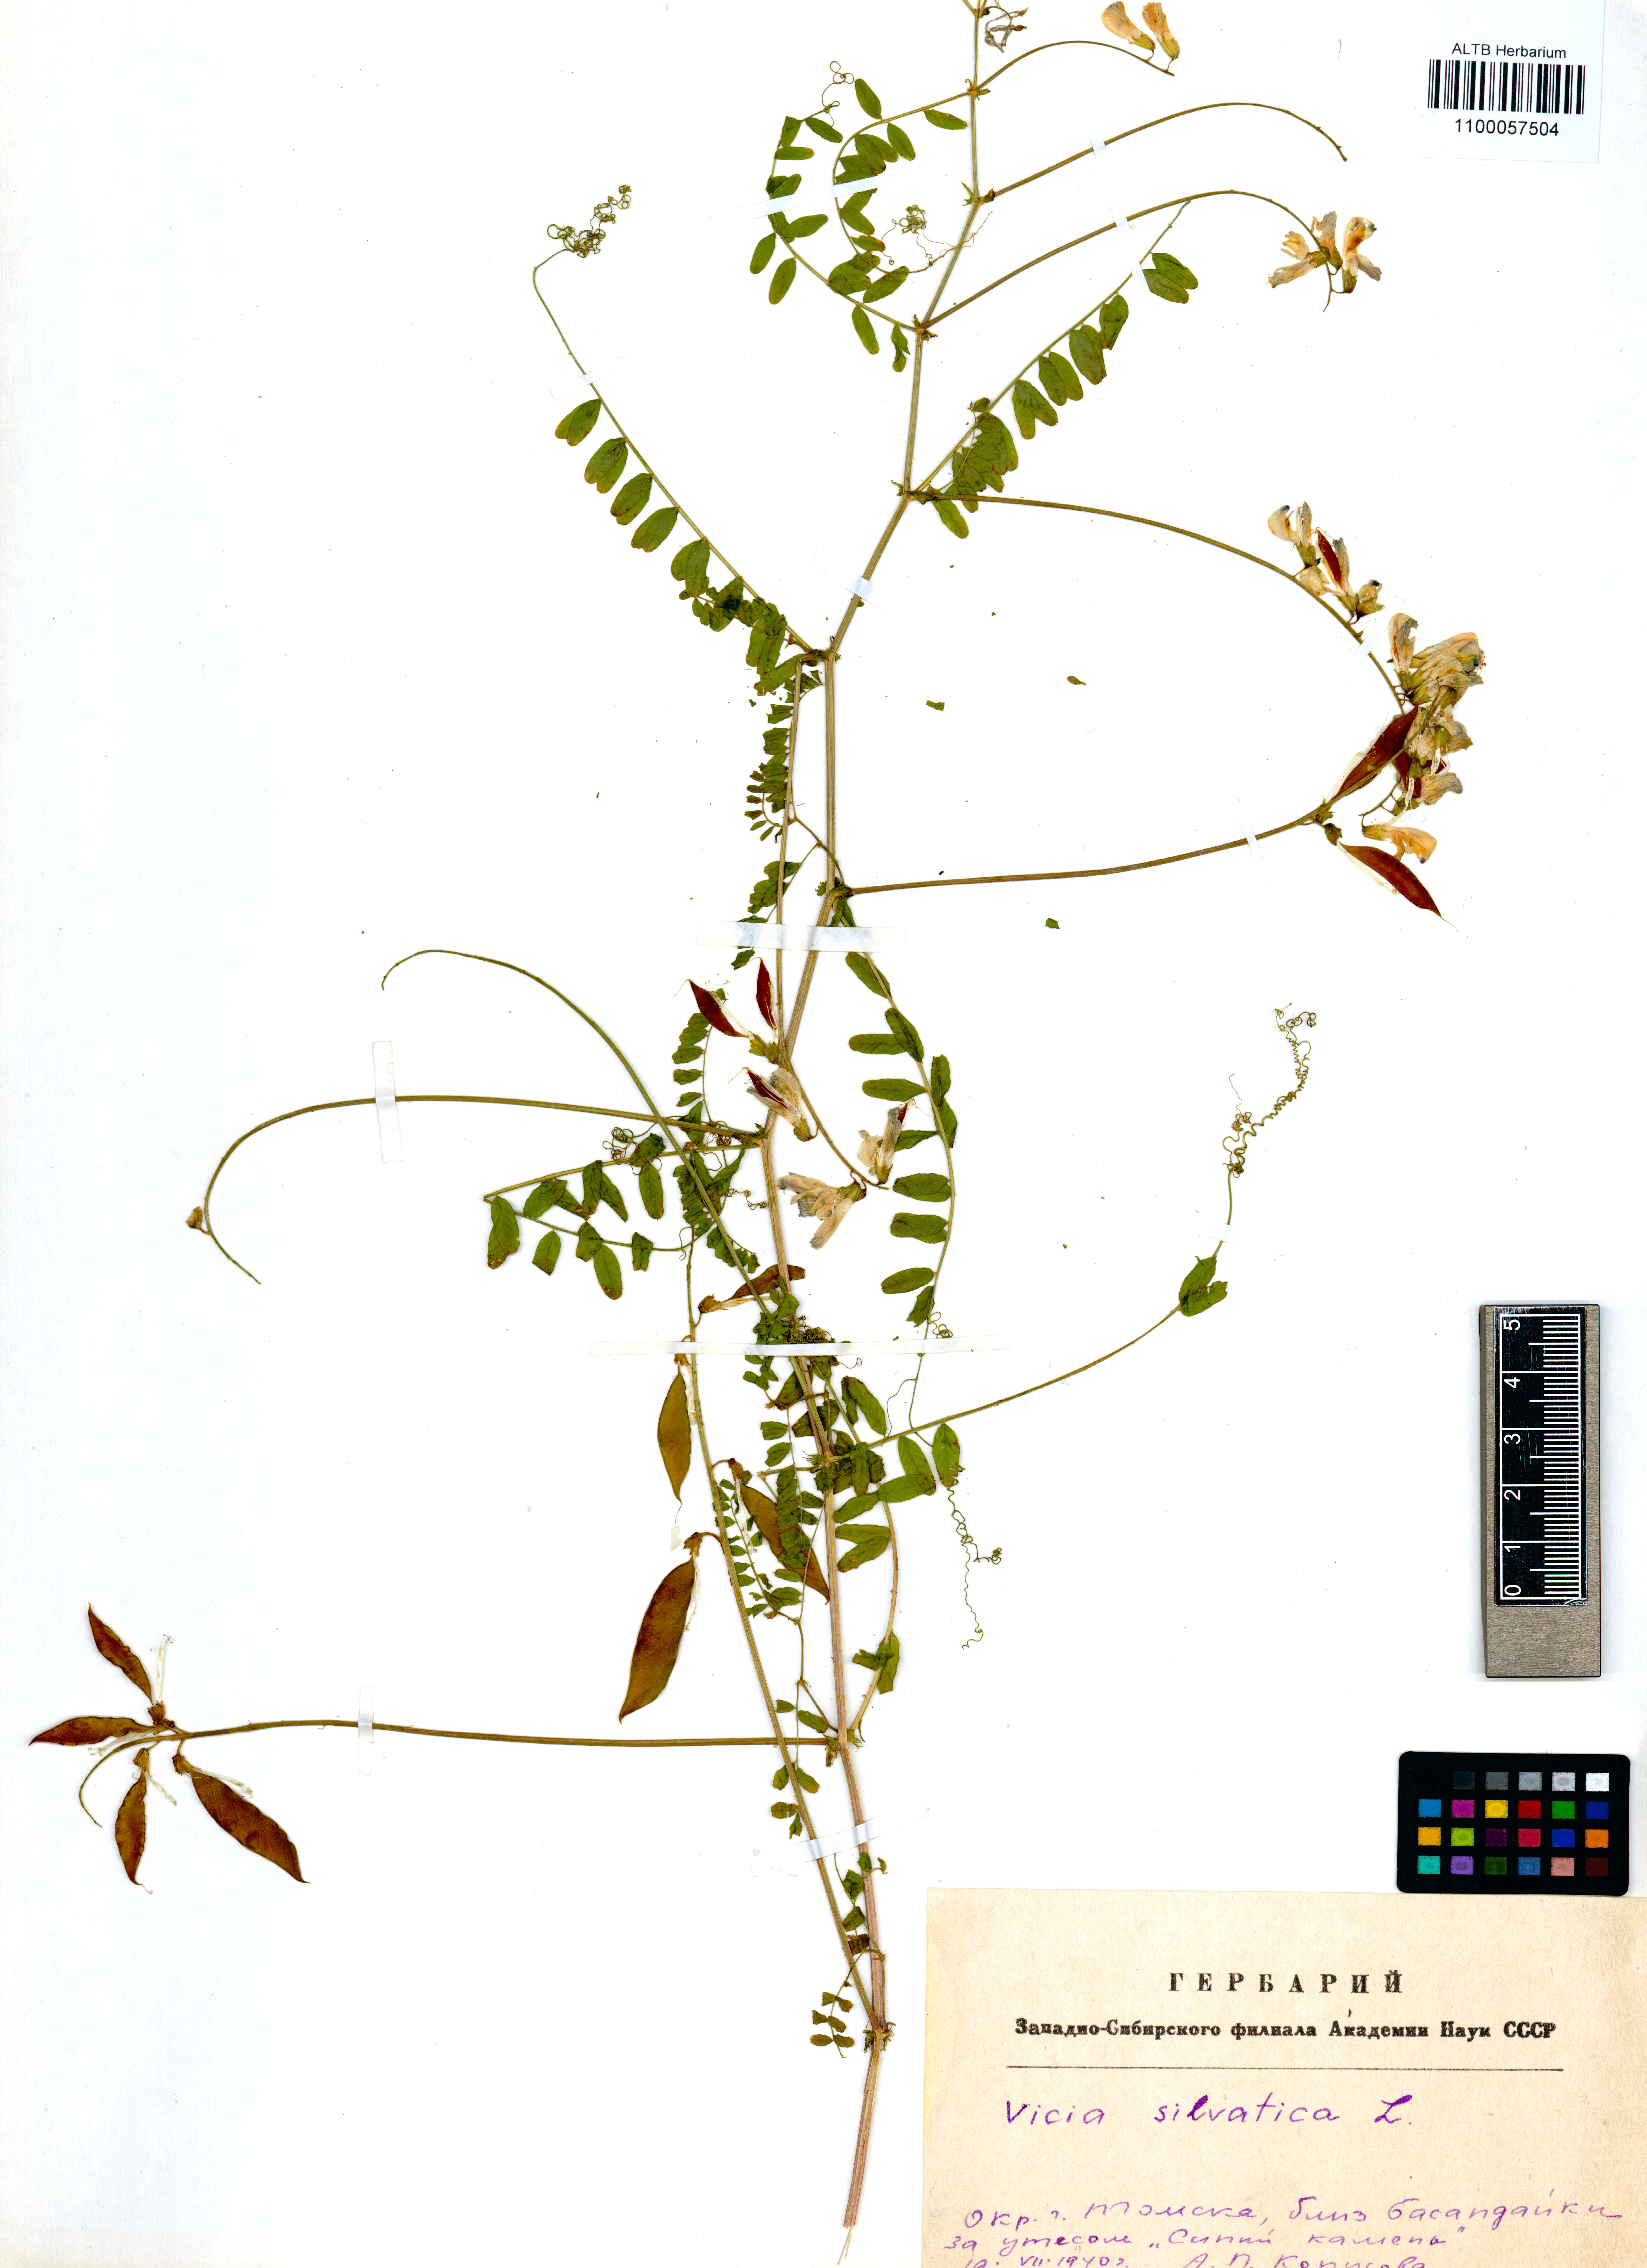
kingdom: Plantae
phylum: Tracheophyta
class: Magnoliopsida
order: Fabales
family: Fabaceae
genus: Vicia
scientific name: Vicia sylvatica
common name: Wood vetch
